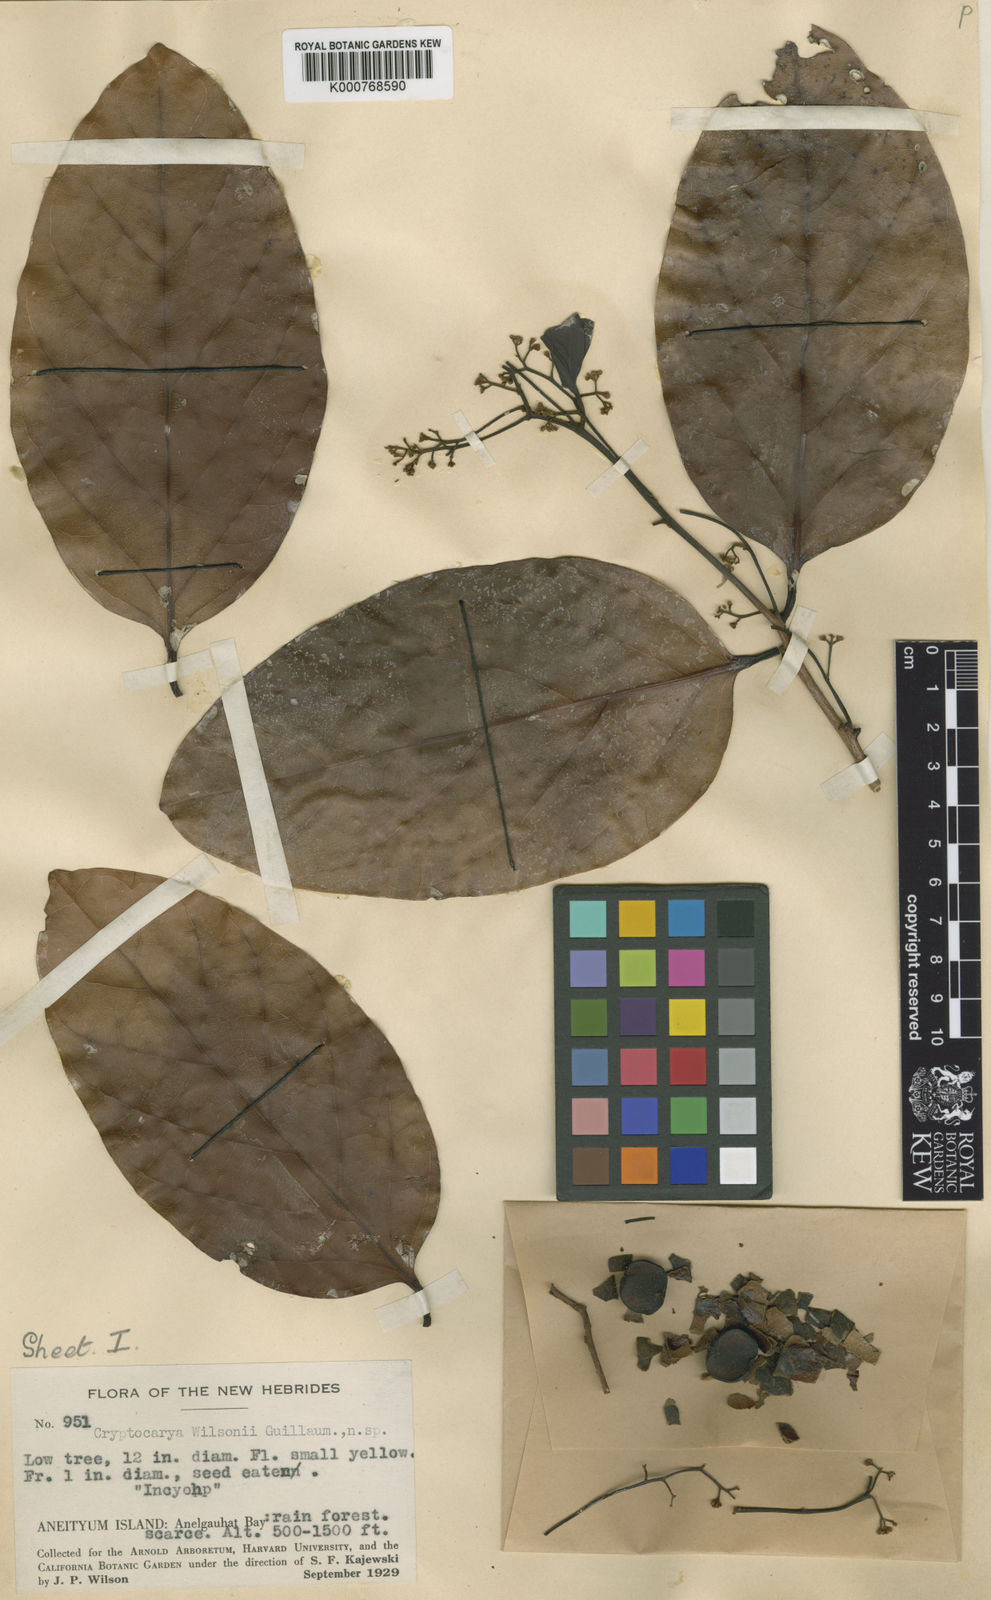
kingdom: Plantae
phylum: Tracheophyta
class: Magnoliopsida
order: Laurales
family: Lauraceae
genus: Cryptocarya
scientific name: Cryptocarya wilsonii
